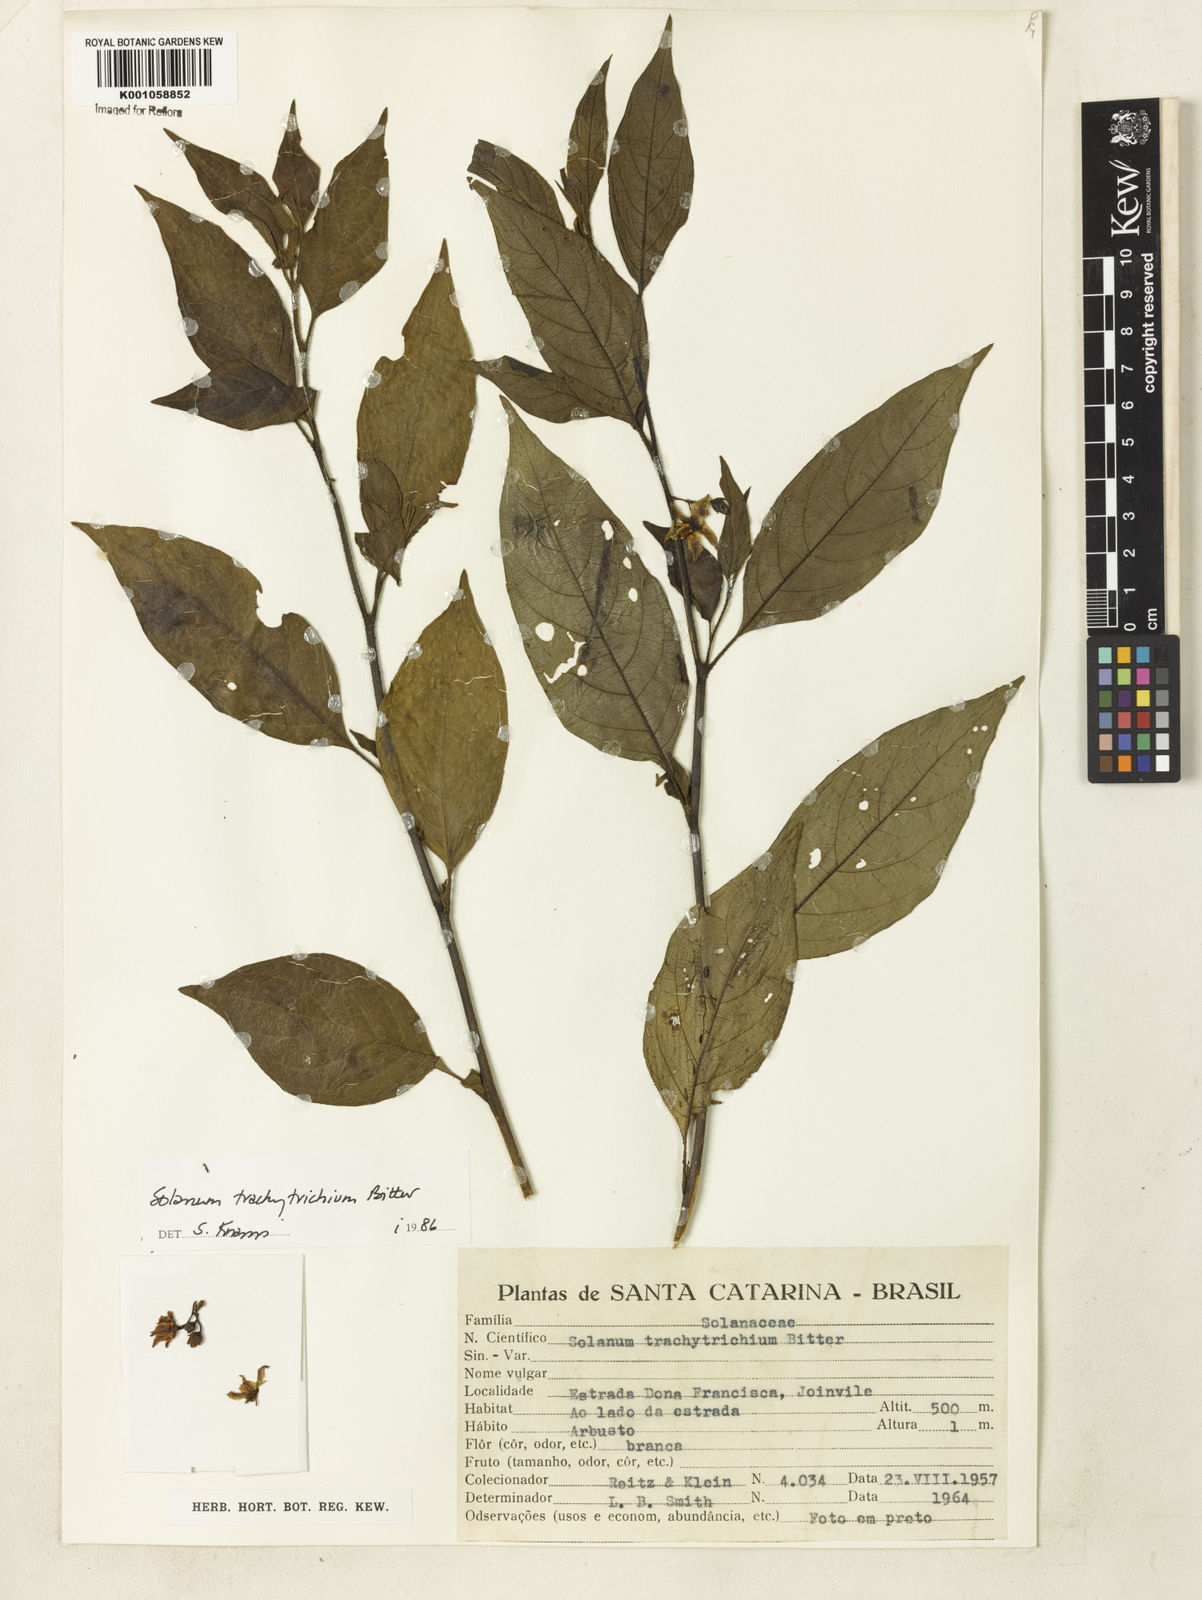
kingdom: Plantae
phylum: Tracheophyta
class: Magnoliopsida
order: Solanales
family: Solanaceae
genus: Solanum
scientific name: Solanum trachytrichium
